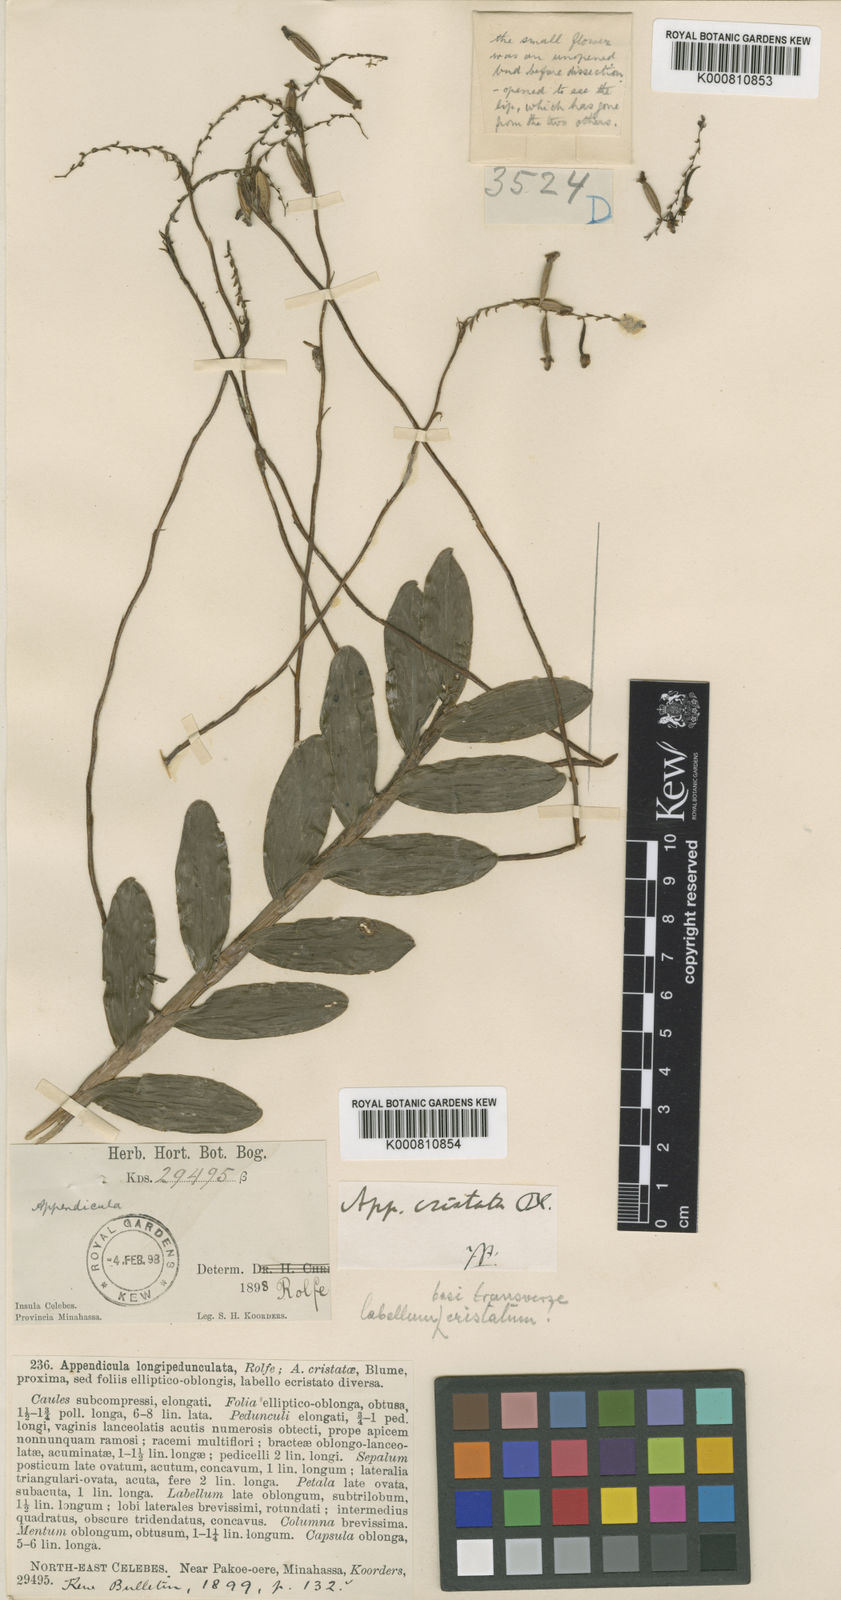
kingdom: Plantae
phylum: Tracheophyta
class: Liliopsida
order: Asparagales
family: Orchidaceae
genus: Appendicula
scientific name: Appendicula cristata
